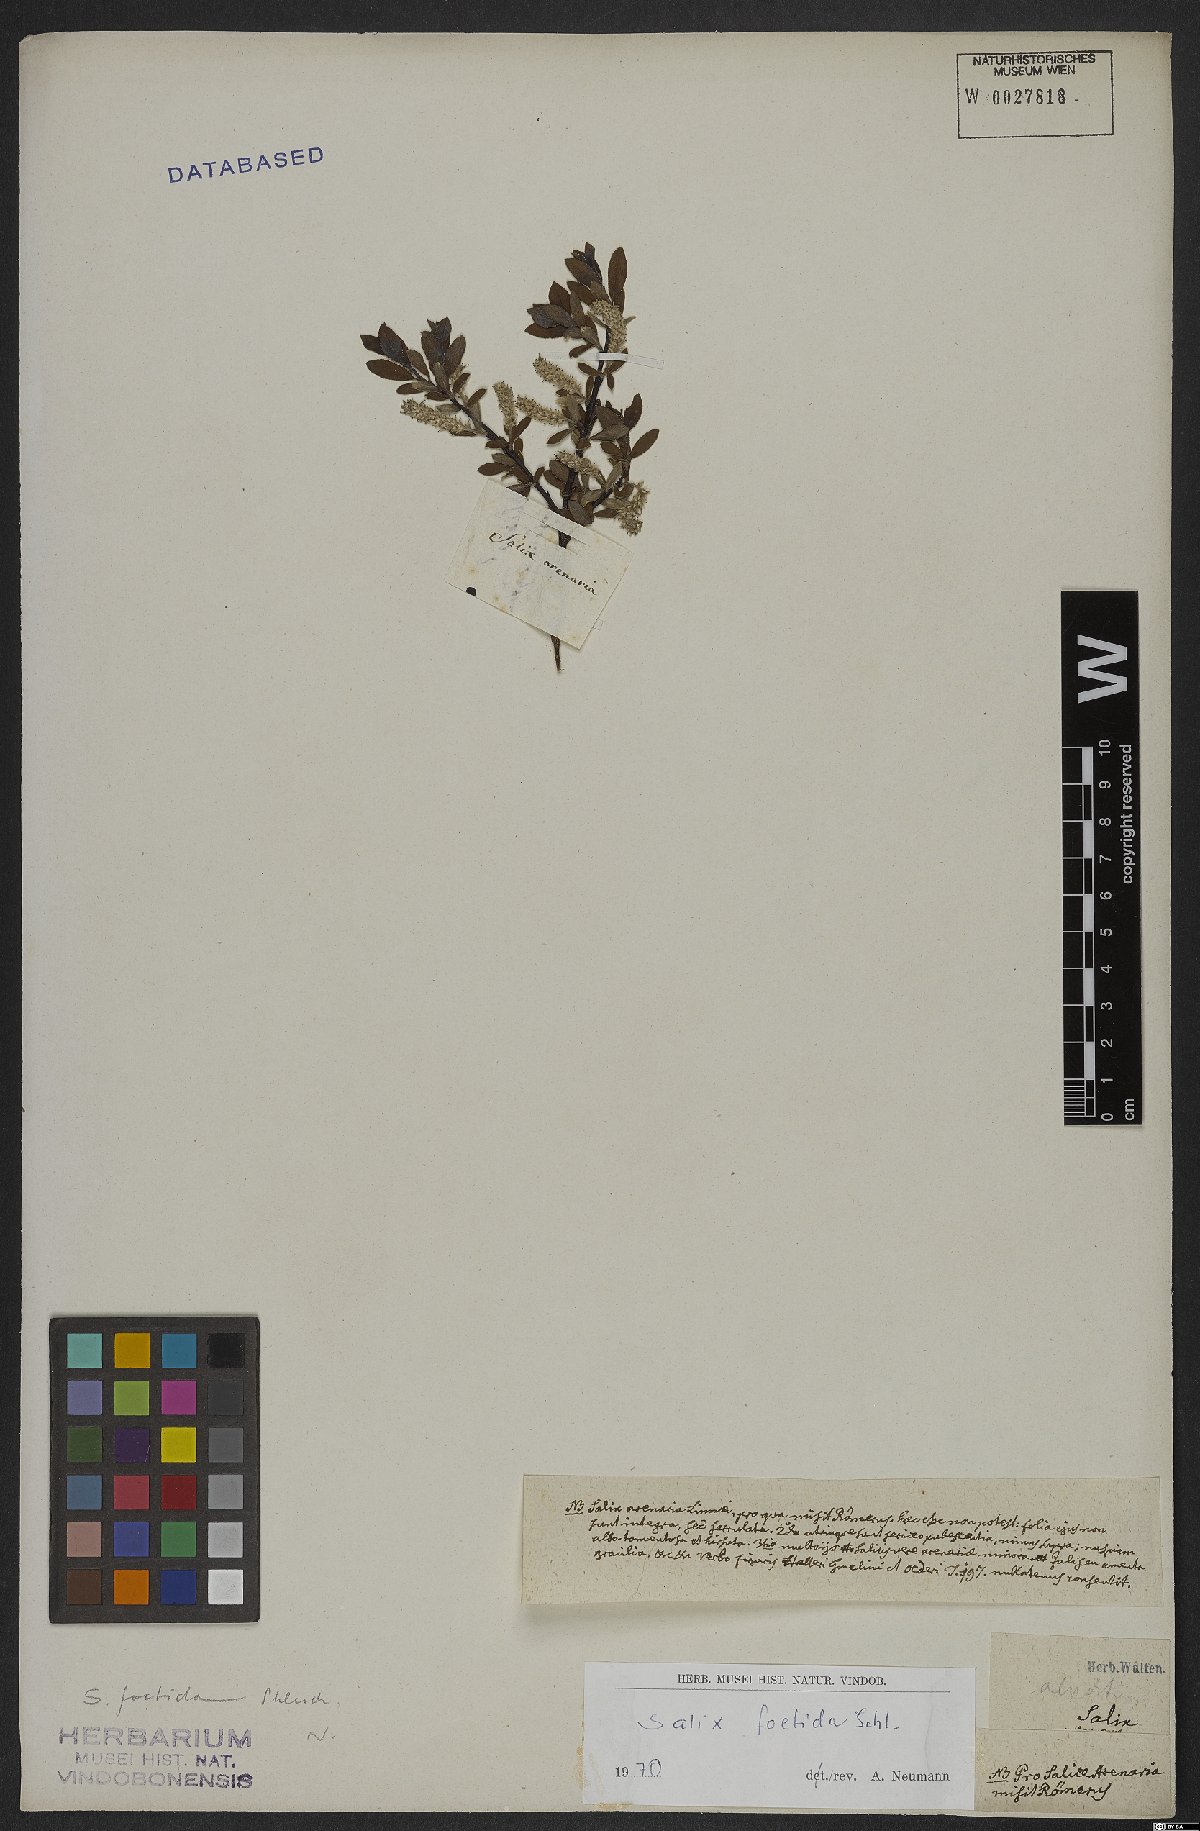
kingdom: Plantae
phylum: Tracheophyta
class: Magnoliopsida
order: Malpighiales
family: Salicaceae
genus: Salix
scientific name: Salix foetida
